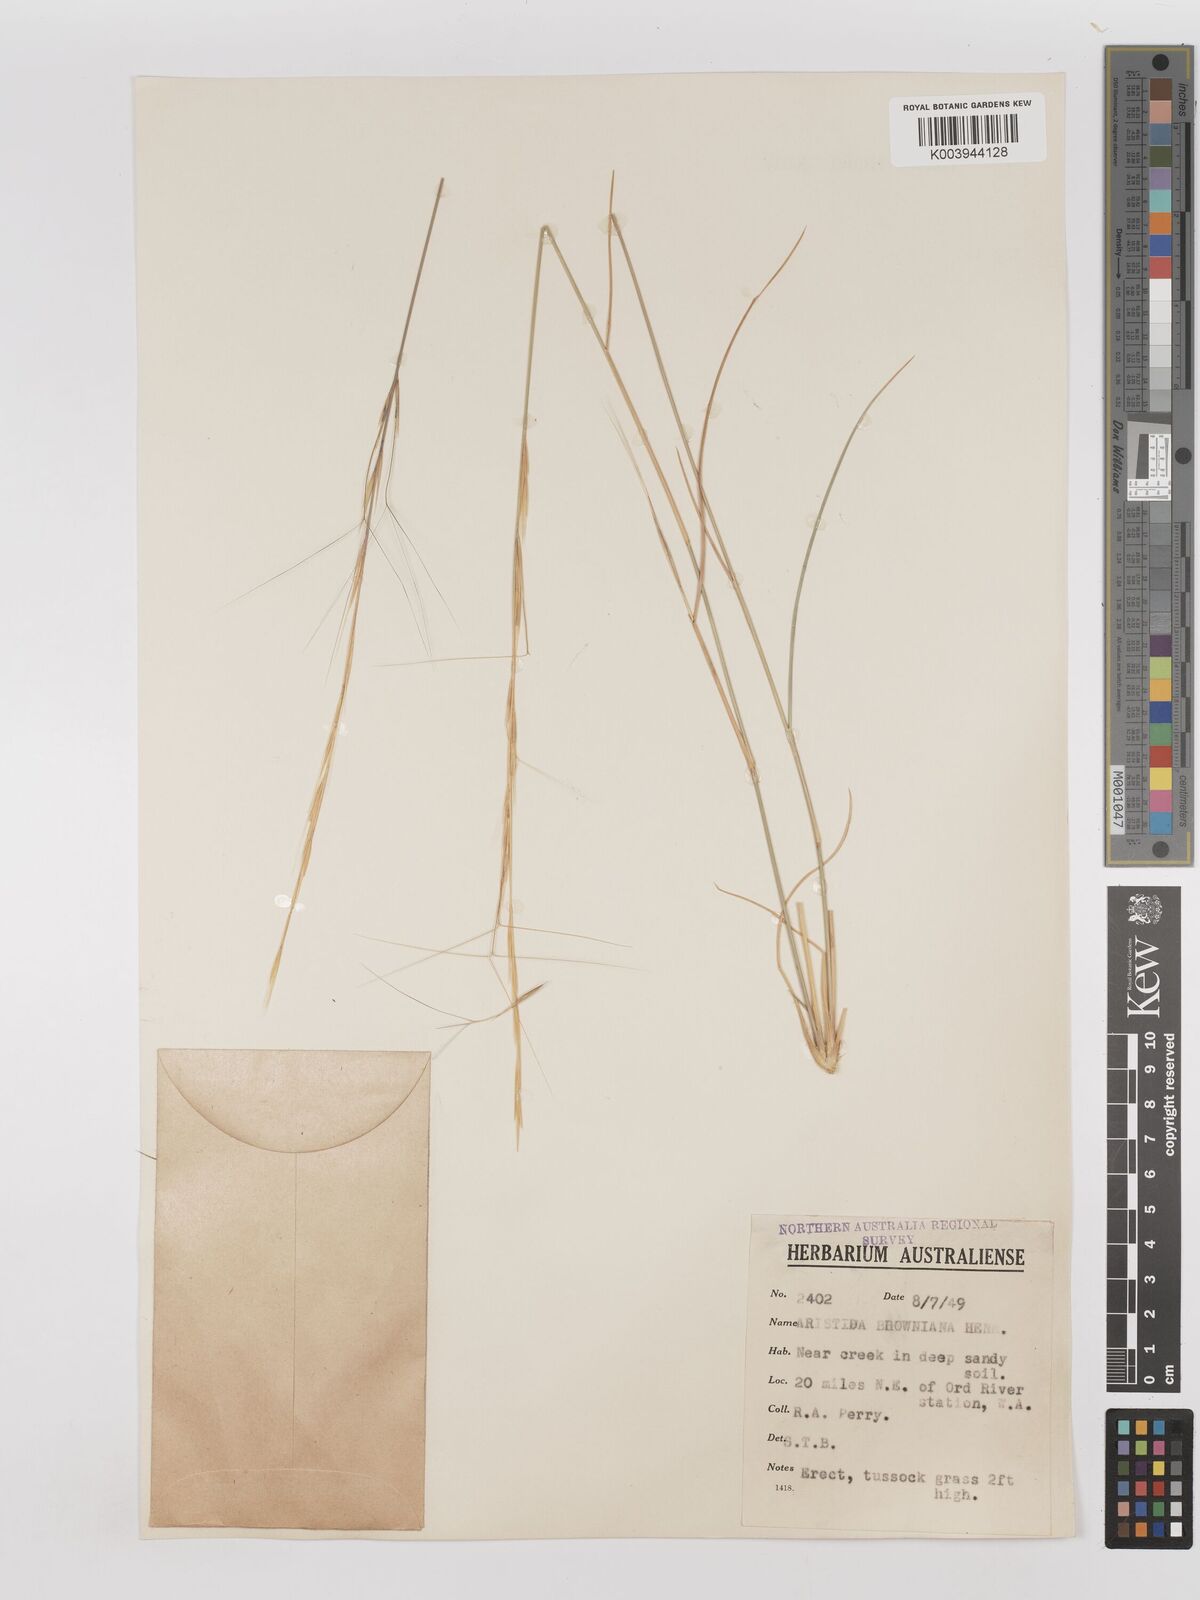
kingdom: Plantae
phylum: Tracheophyta
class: Liliopsida
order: Poales
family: Poaceae
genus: Aristida
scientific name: Aristida holathera
